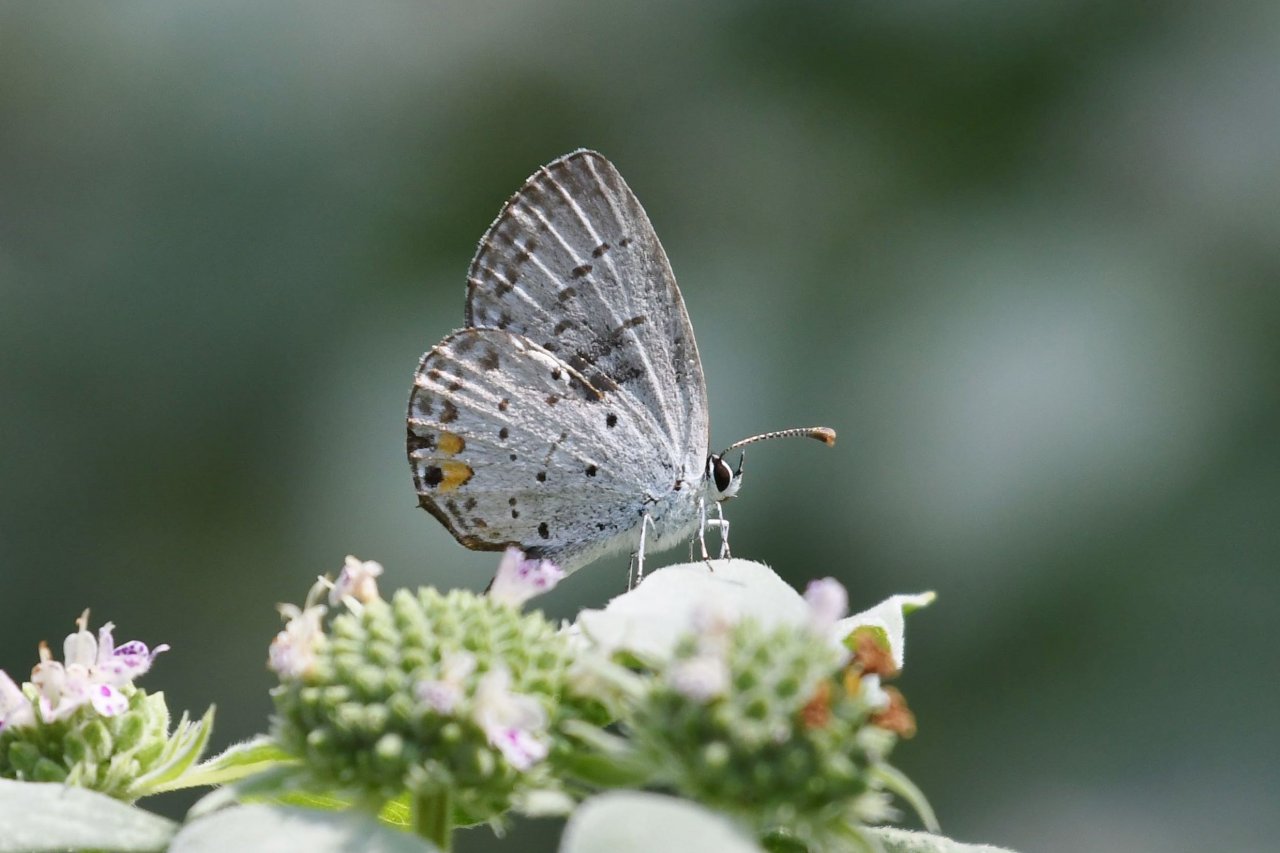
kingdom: Animalia
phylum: Arthropoda
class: Insecta
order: Lepidoptera
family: Lycaenidae
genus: Elkalyce
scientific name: Elkalyce comyntas
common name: Eastern Tailed-Blue
